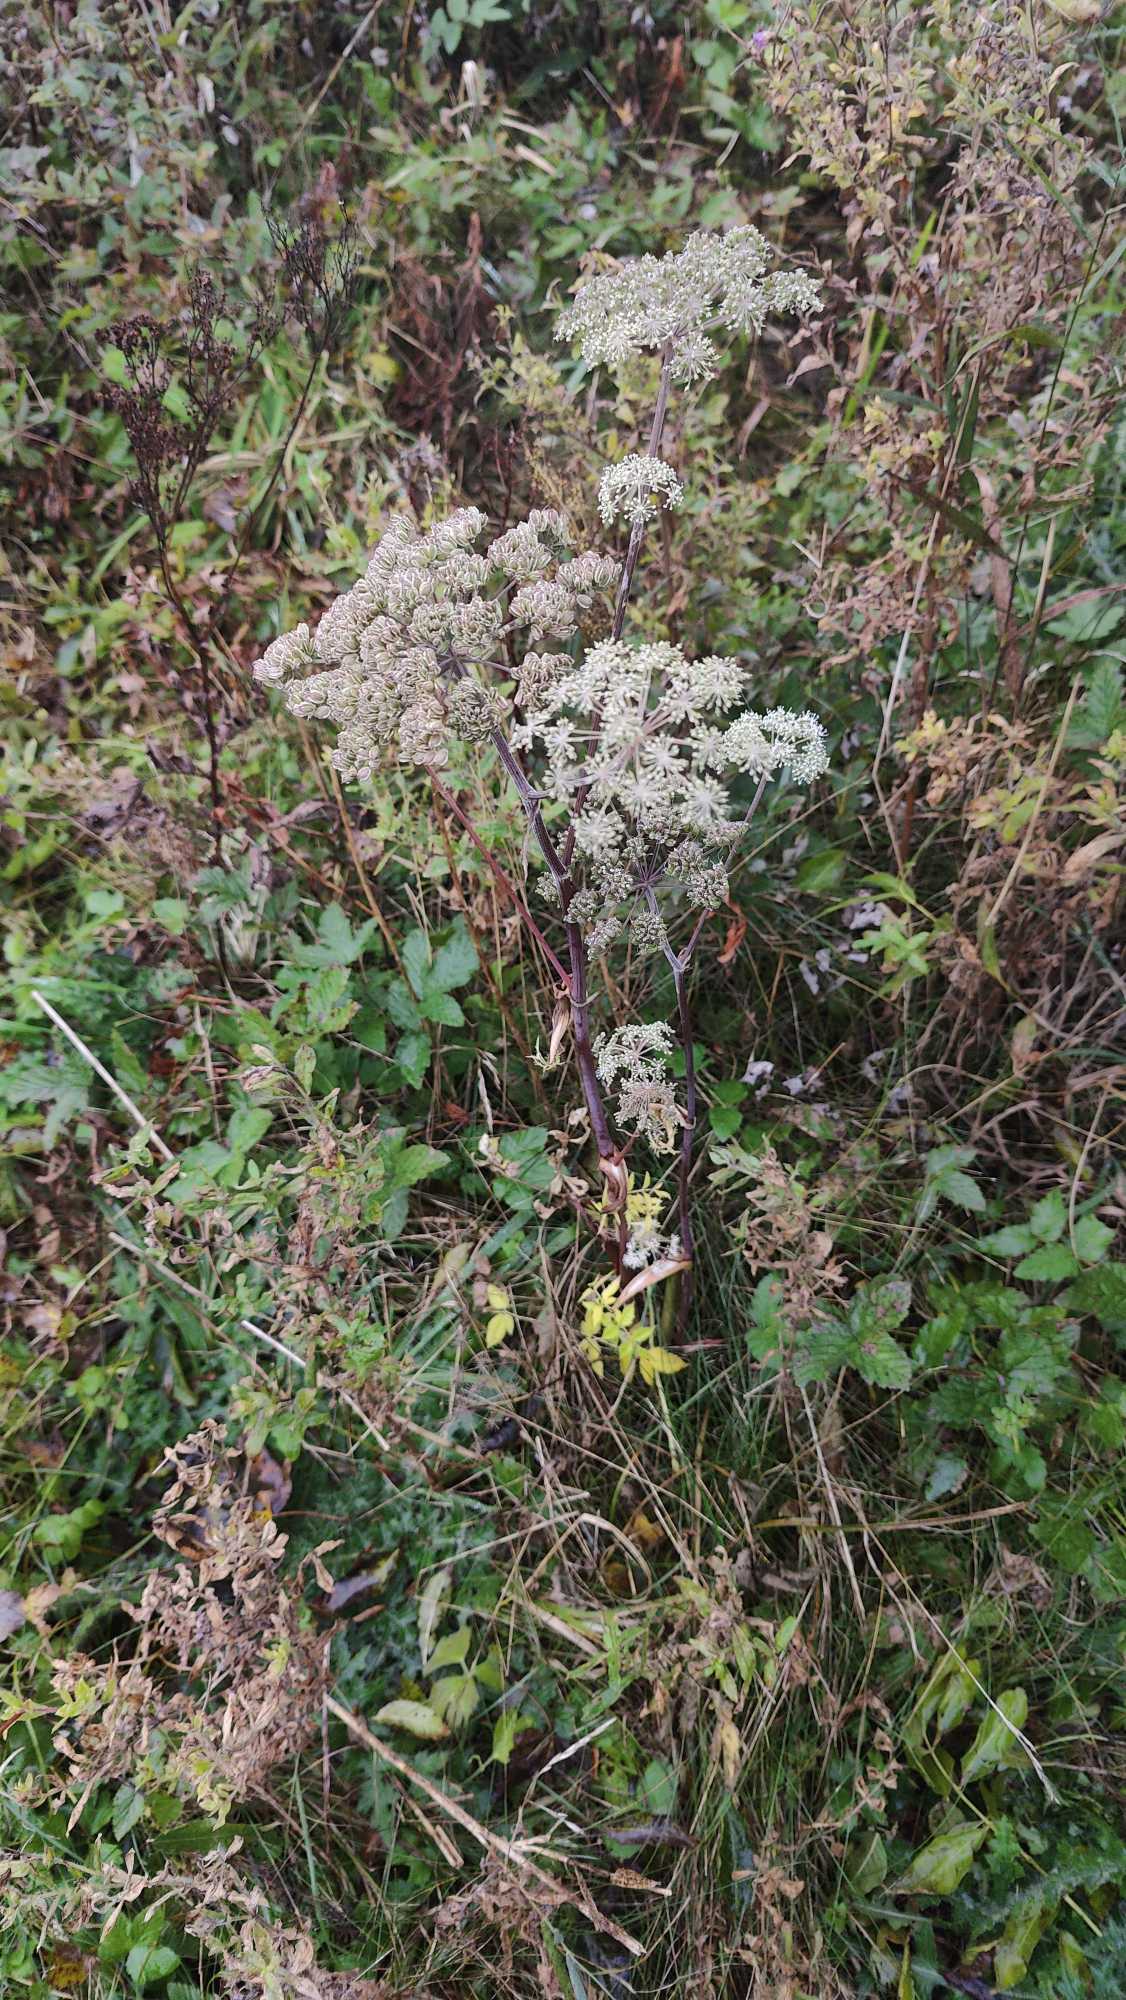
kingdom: Plantae
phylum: Tracheophyta
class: Magnoliopsida
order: Apiales
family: Apiaceae
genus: Angelica
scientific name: Angelica sylvestris
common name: Angelik
